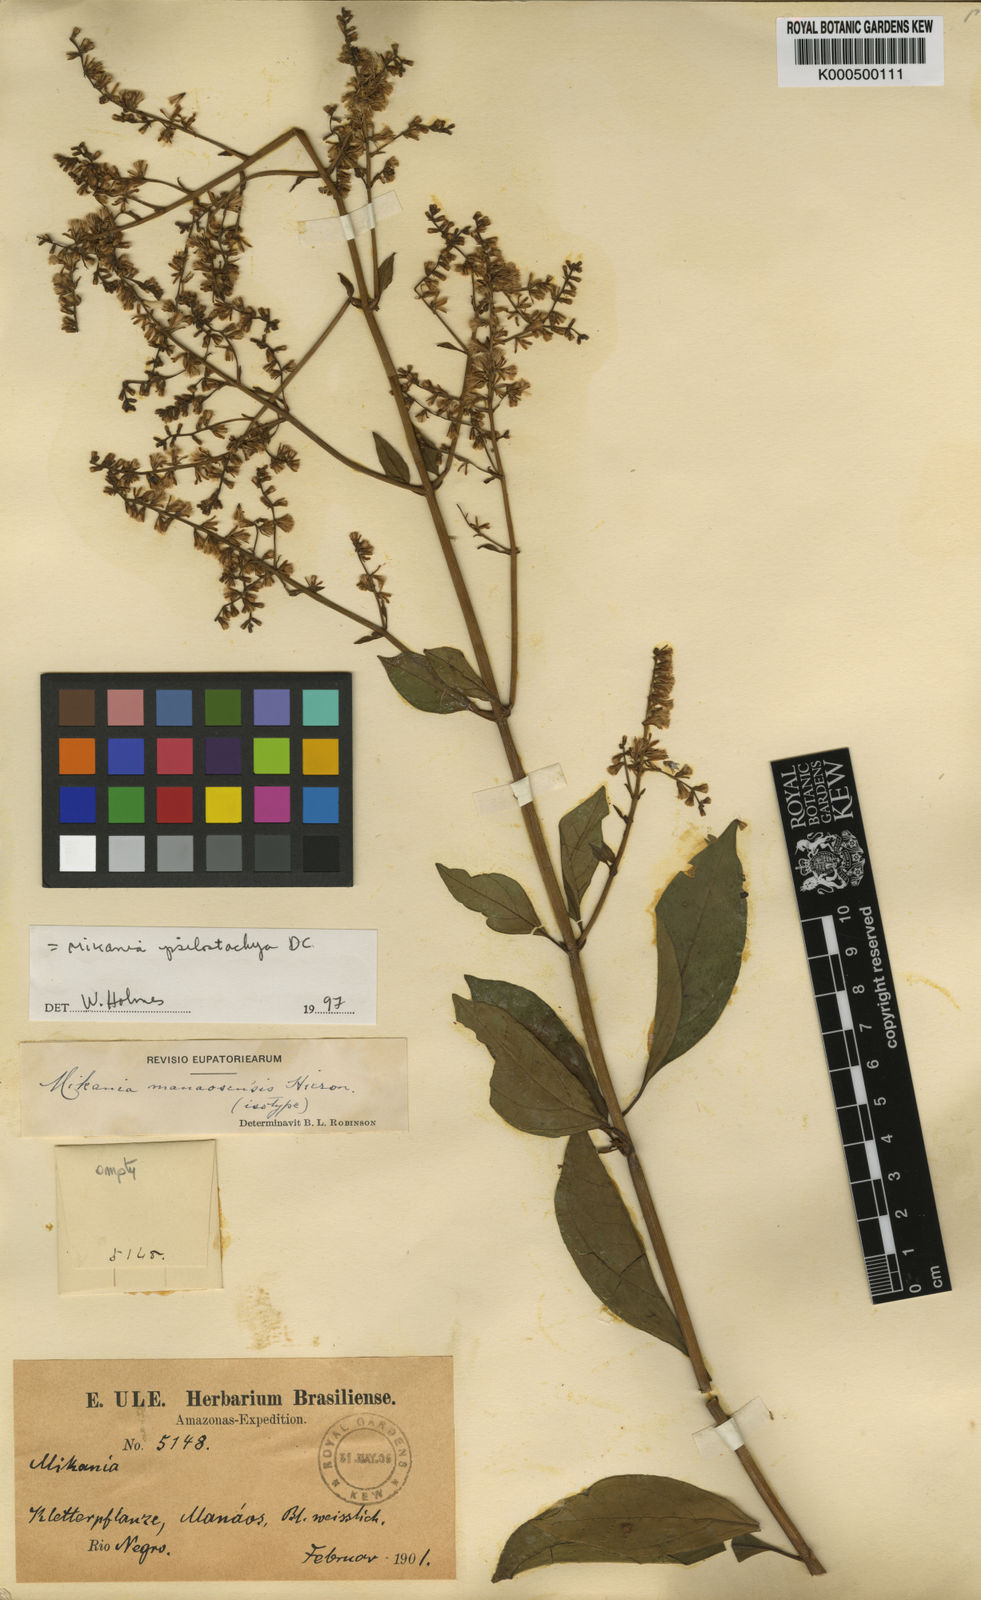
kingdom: Plantae
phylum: Tracheophyta
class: Magnoliopsida
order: Asterales
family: Asteraceae
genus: Mikania
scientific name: Mikania sprucei
